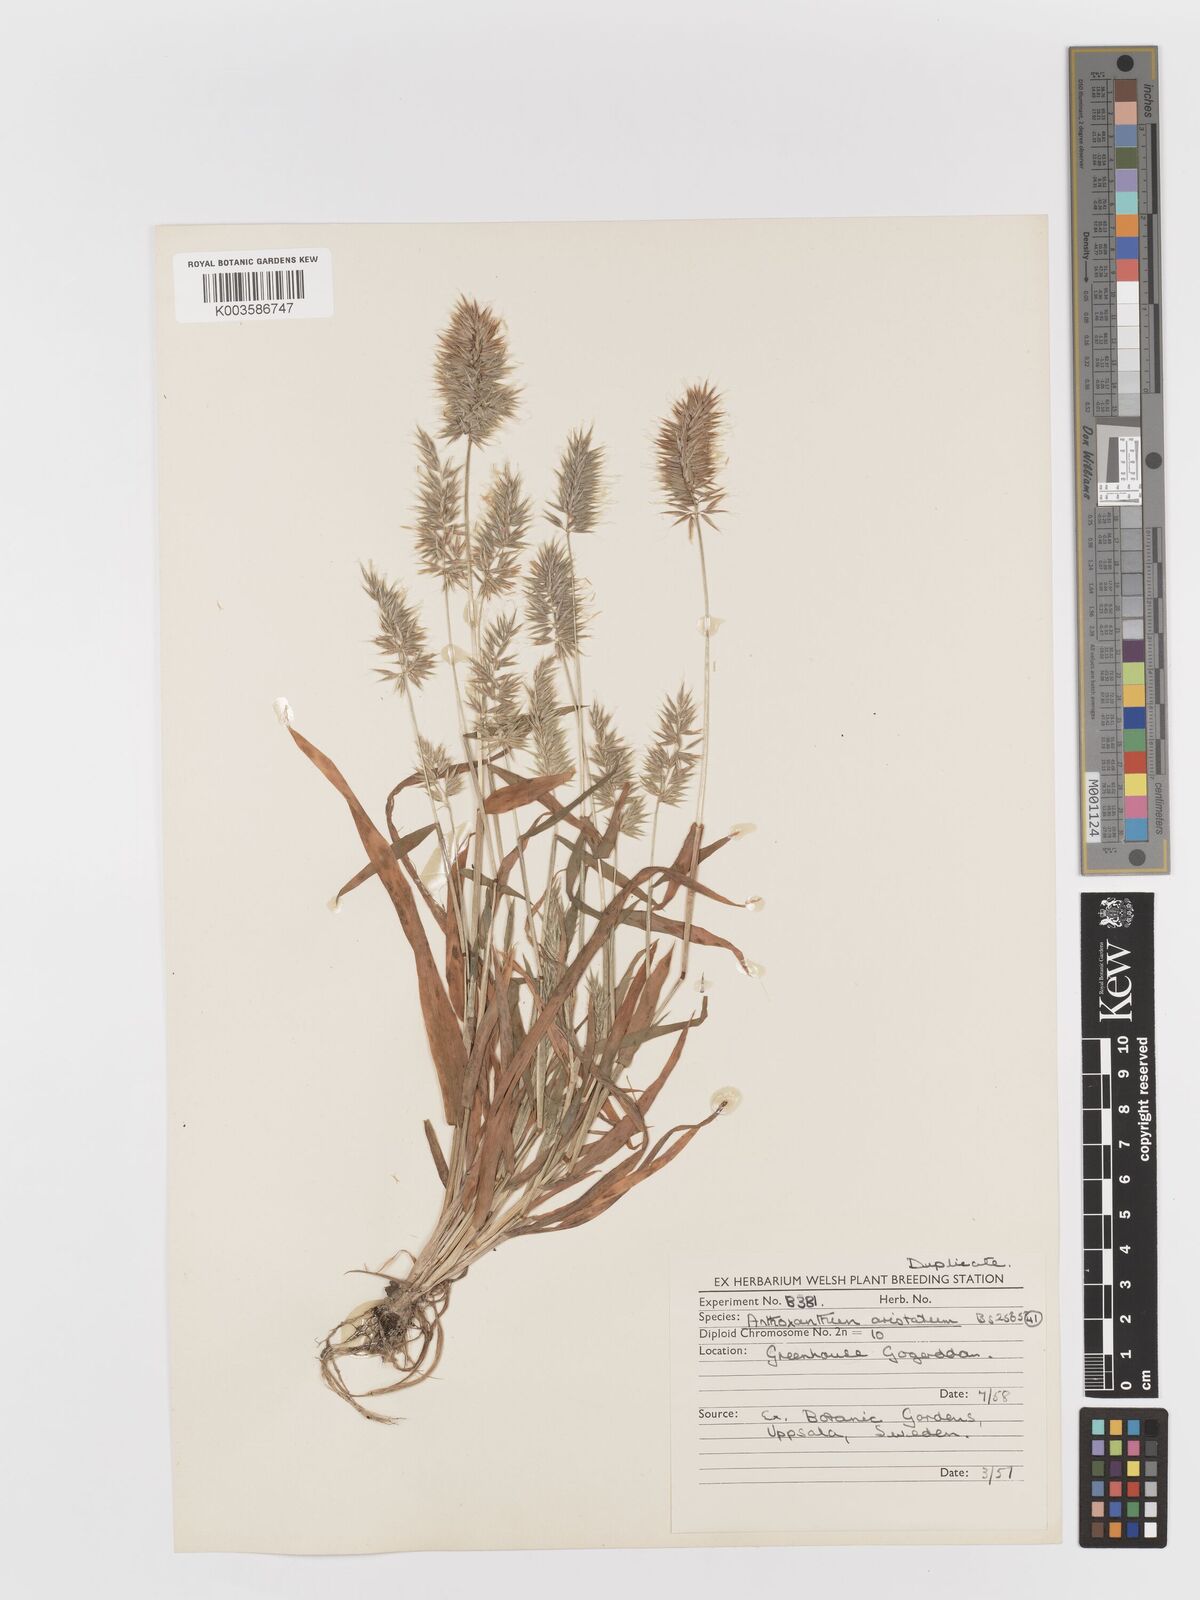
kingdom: Plantae
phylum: Tracheophyta
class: Liliopsida
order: Poales
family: Poaceae
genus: Anthoxanthum
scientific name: Anthoxanthum aristatum
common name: Annual vernal-grass
